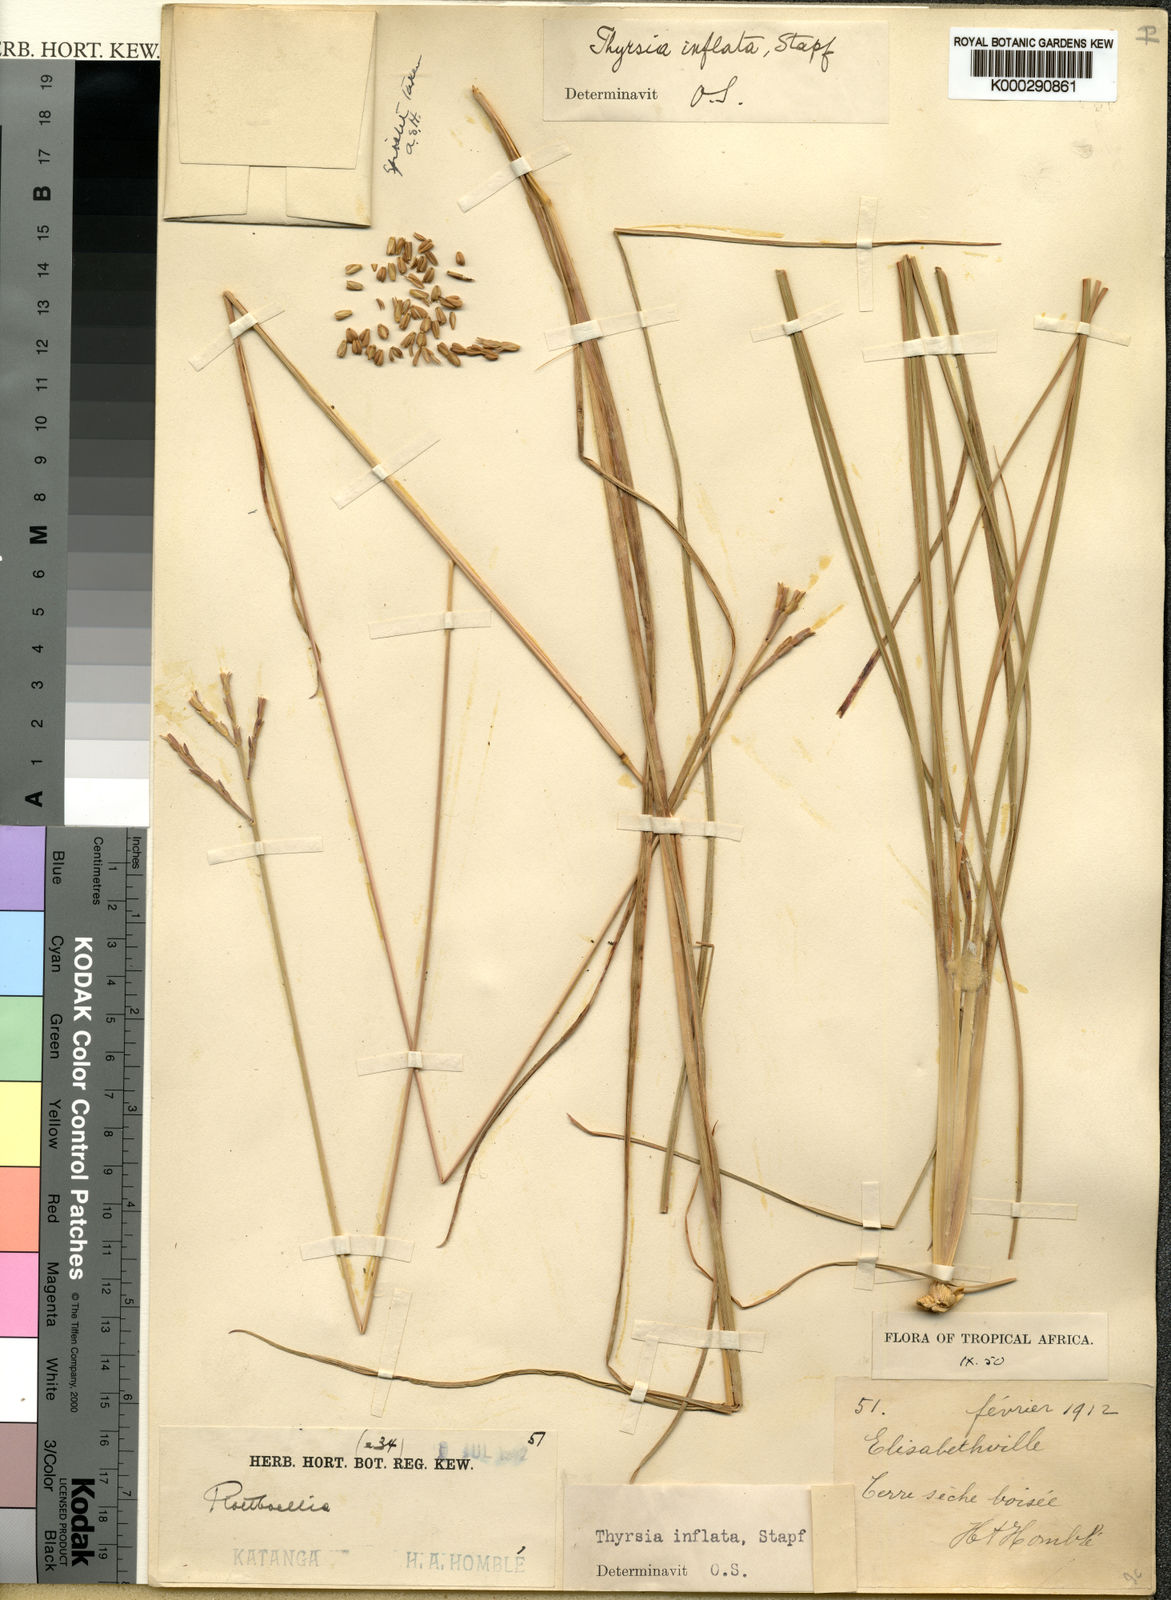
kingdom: Plantae
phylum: Tracheophyta
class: Liliopsida
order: Poales
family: Poaceae
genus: Thyrsia
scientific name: Thyrsia huillensis
